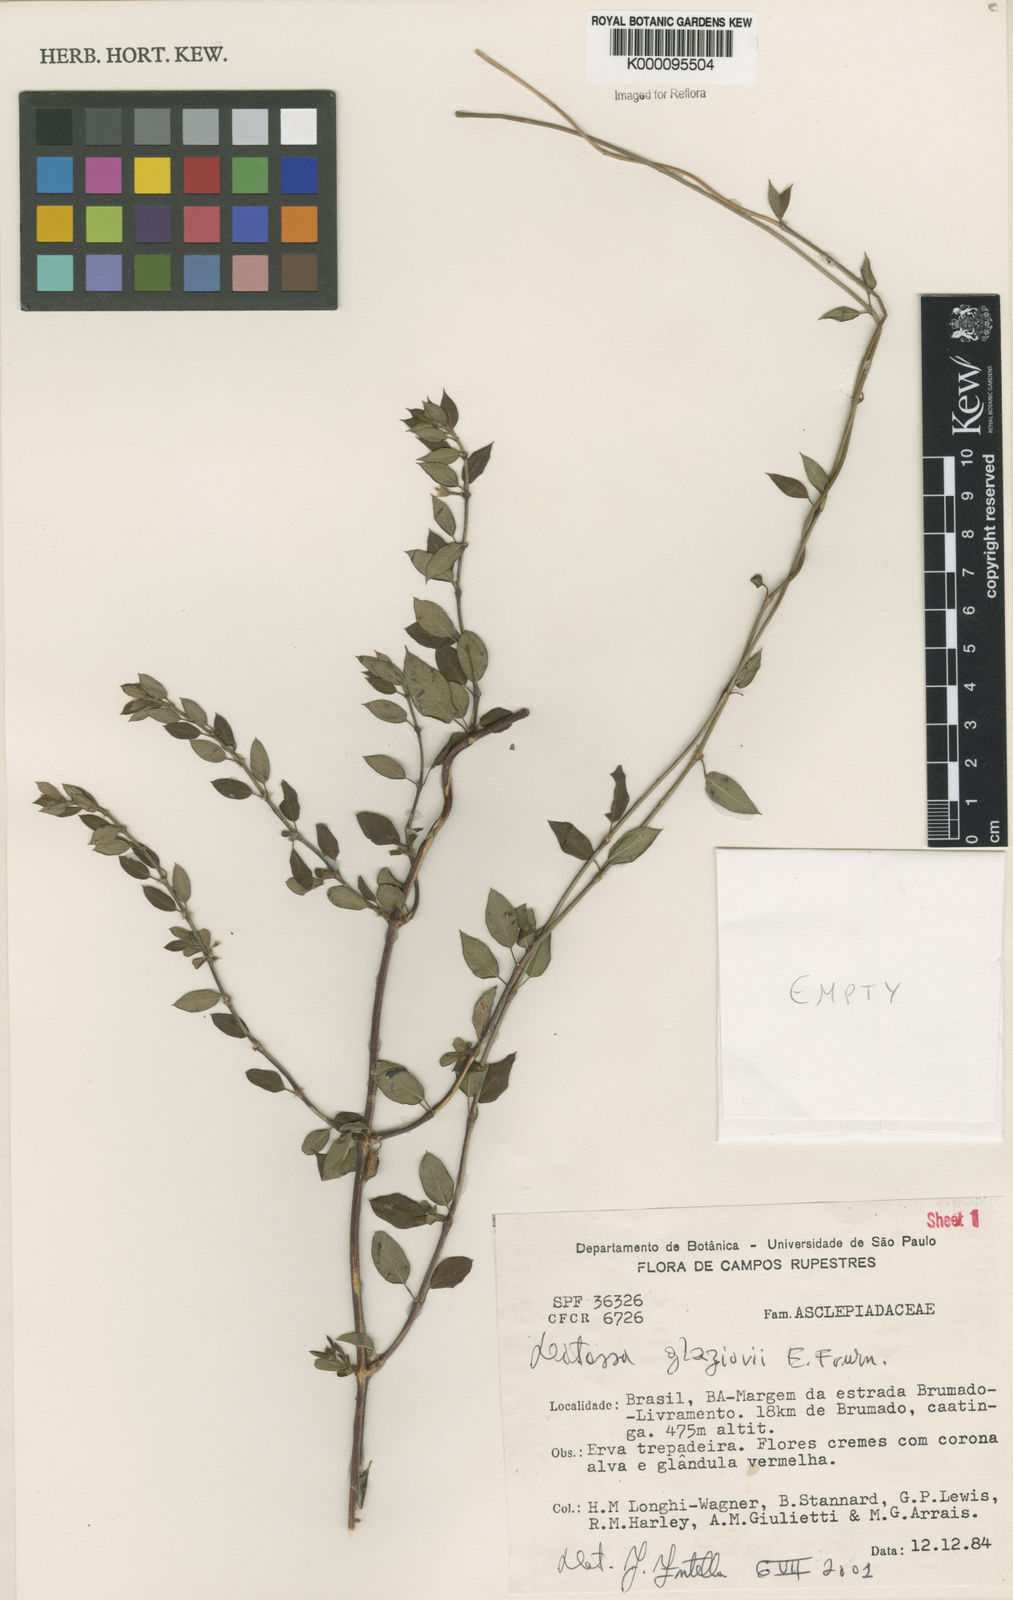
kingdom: Plantae
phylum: Tracheophyta
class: Magnoliopsida
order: Gentianales
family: Apocynaceae
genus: Ditassa
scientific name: Ditassa
